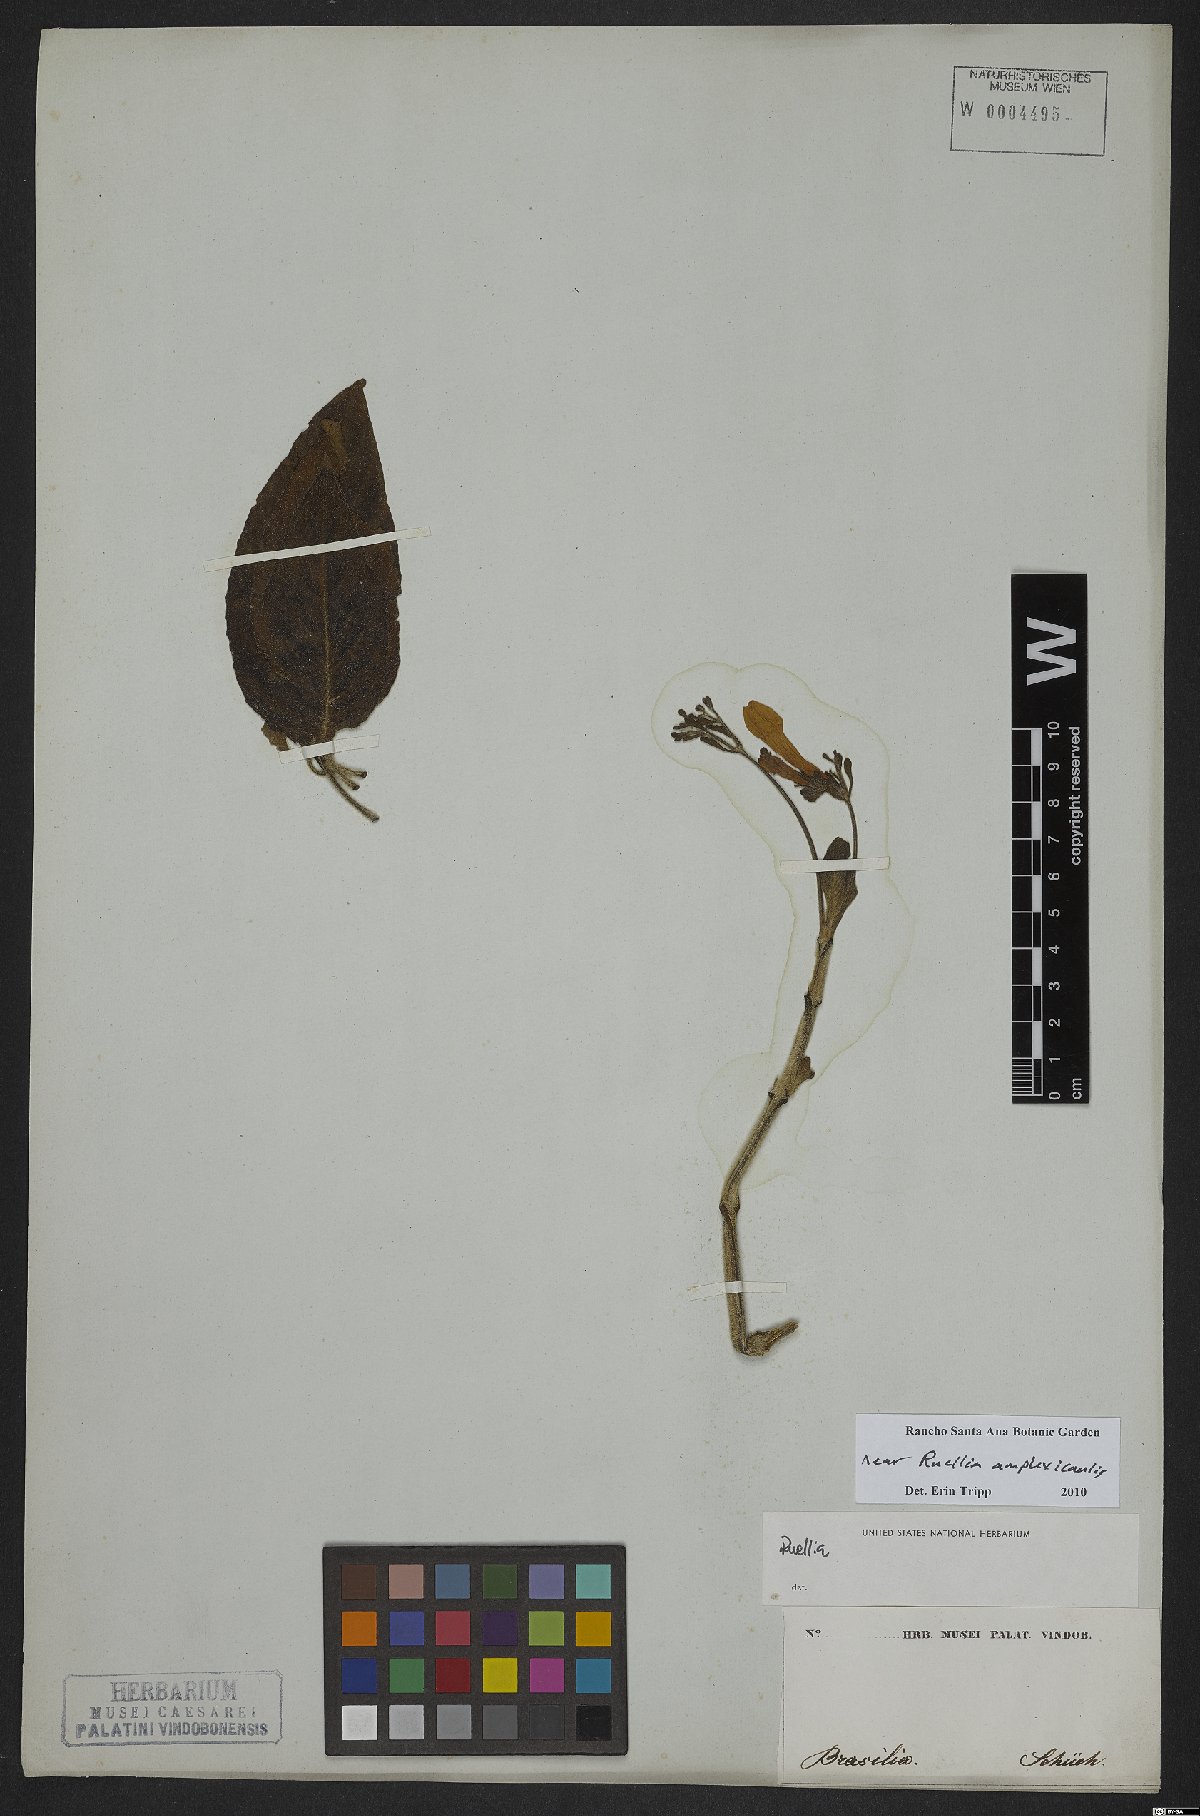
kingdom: Plantae
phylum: Tracheophyta
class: Magnoliopsida
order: Lamiales
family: Acanthaceae
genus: Ruellia
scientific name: Ruellia amplexicaulis
